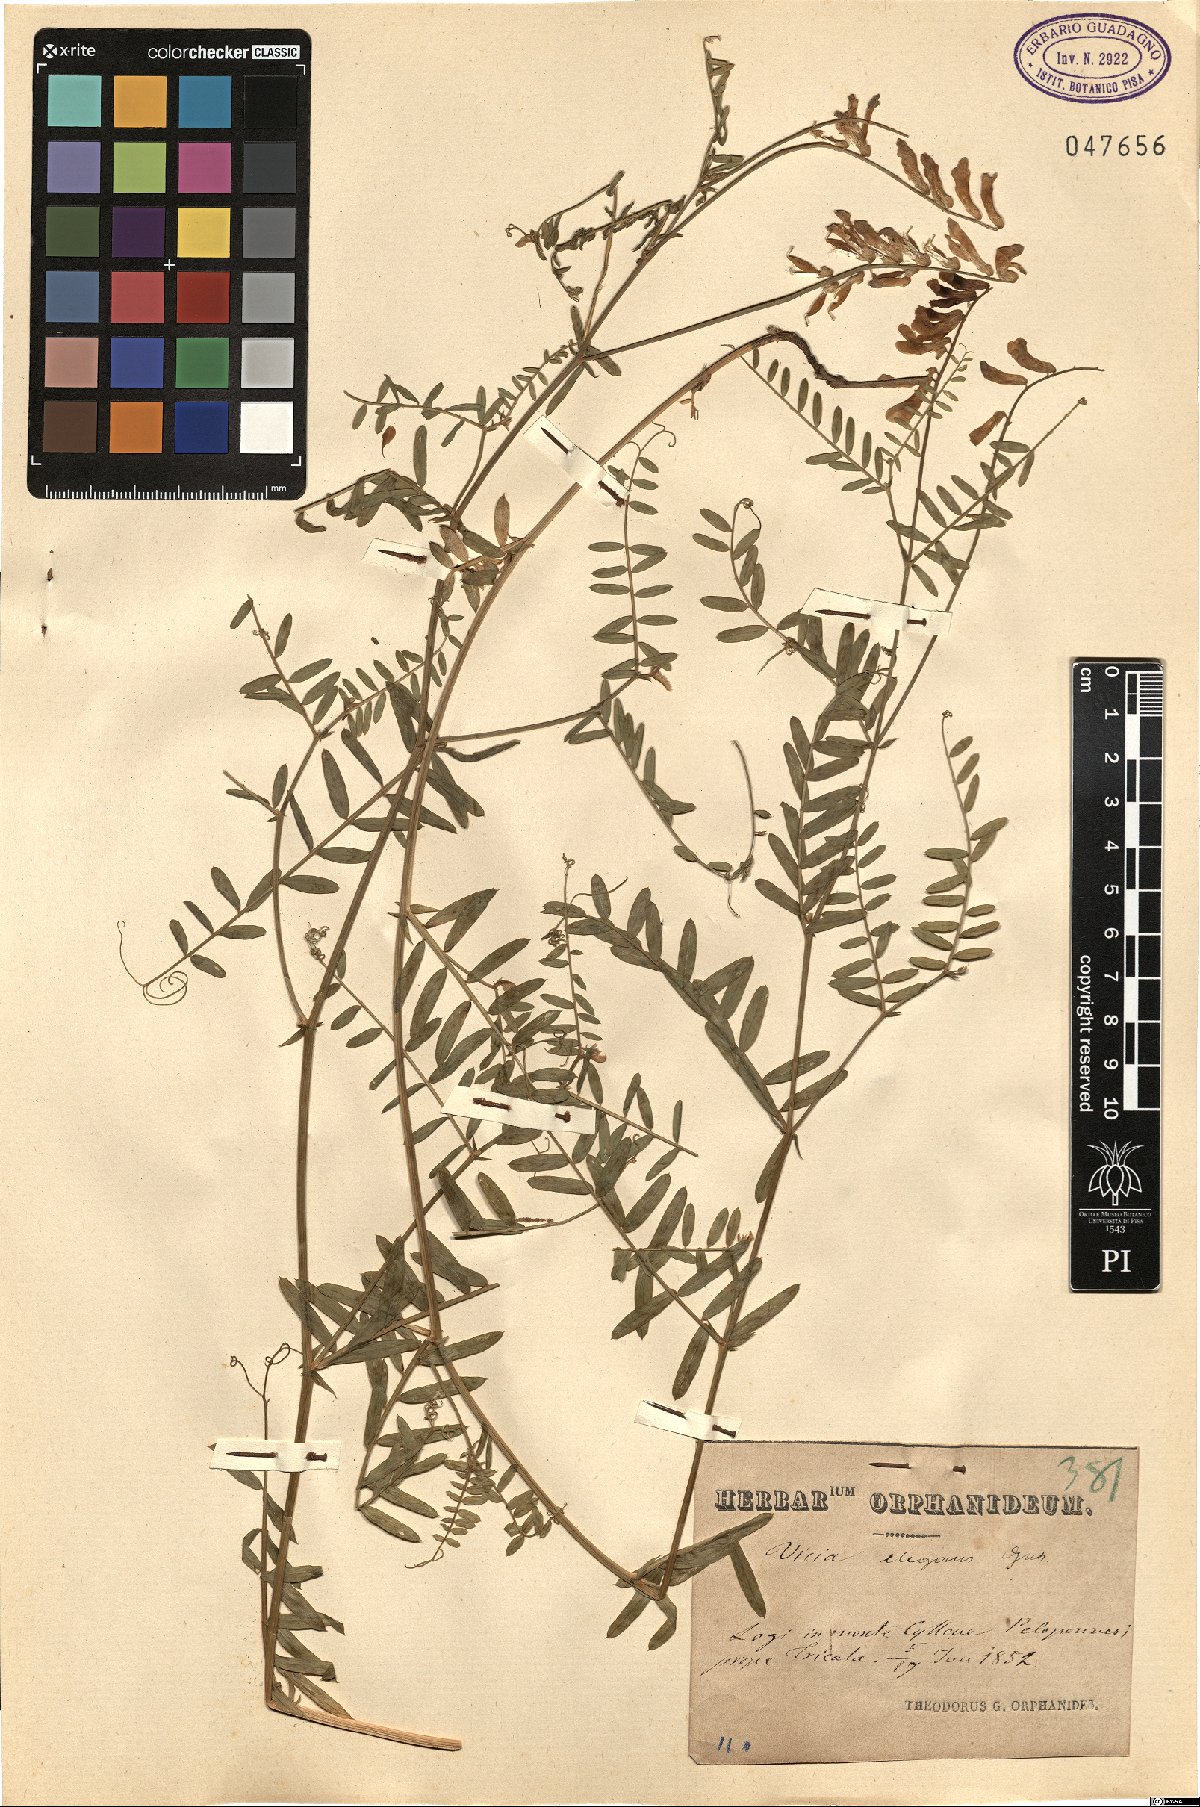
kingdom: Plantae
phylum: Tracheophyta
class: Magnoliopsida
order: Fabales
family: Fabaceae
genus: Vicia
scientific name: Vicia tenuifolia
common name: Fine-leaved vetch
